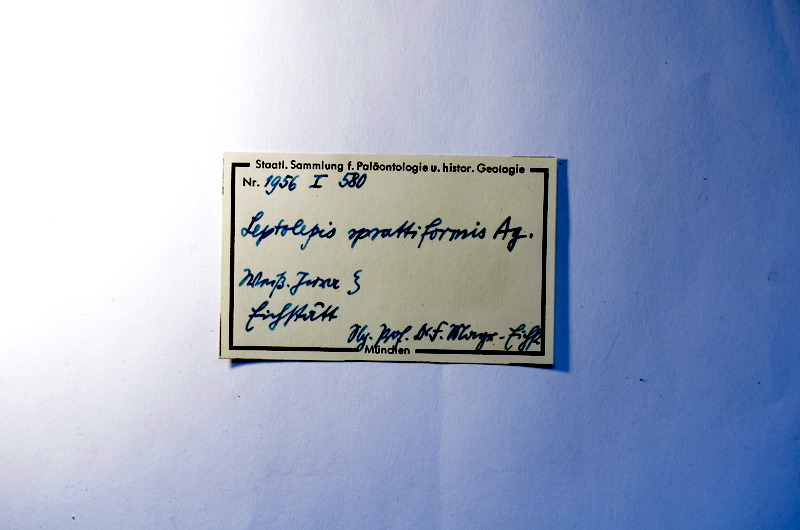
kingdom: Animalia
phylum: Chordata
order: Salmoniformes
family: Orthogonikleithridae
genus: Leptolepides
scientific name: Leptolepides sprattiformis
